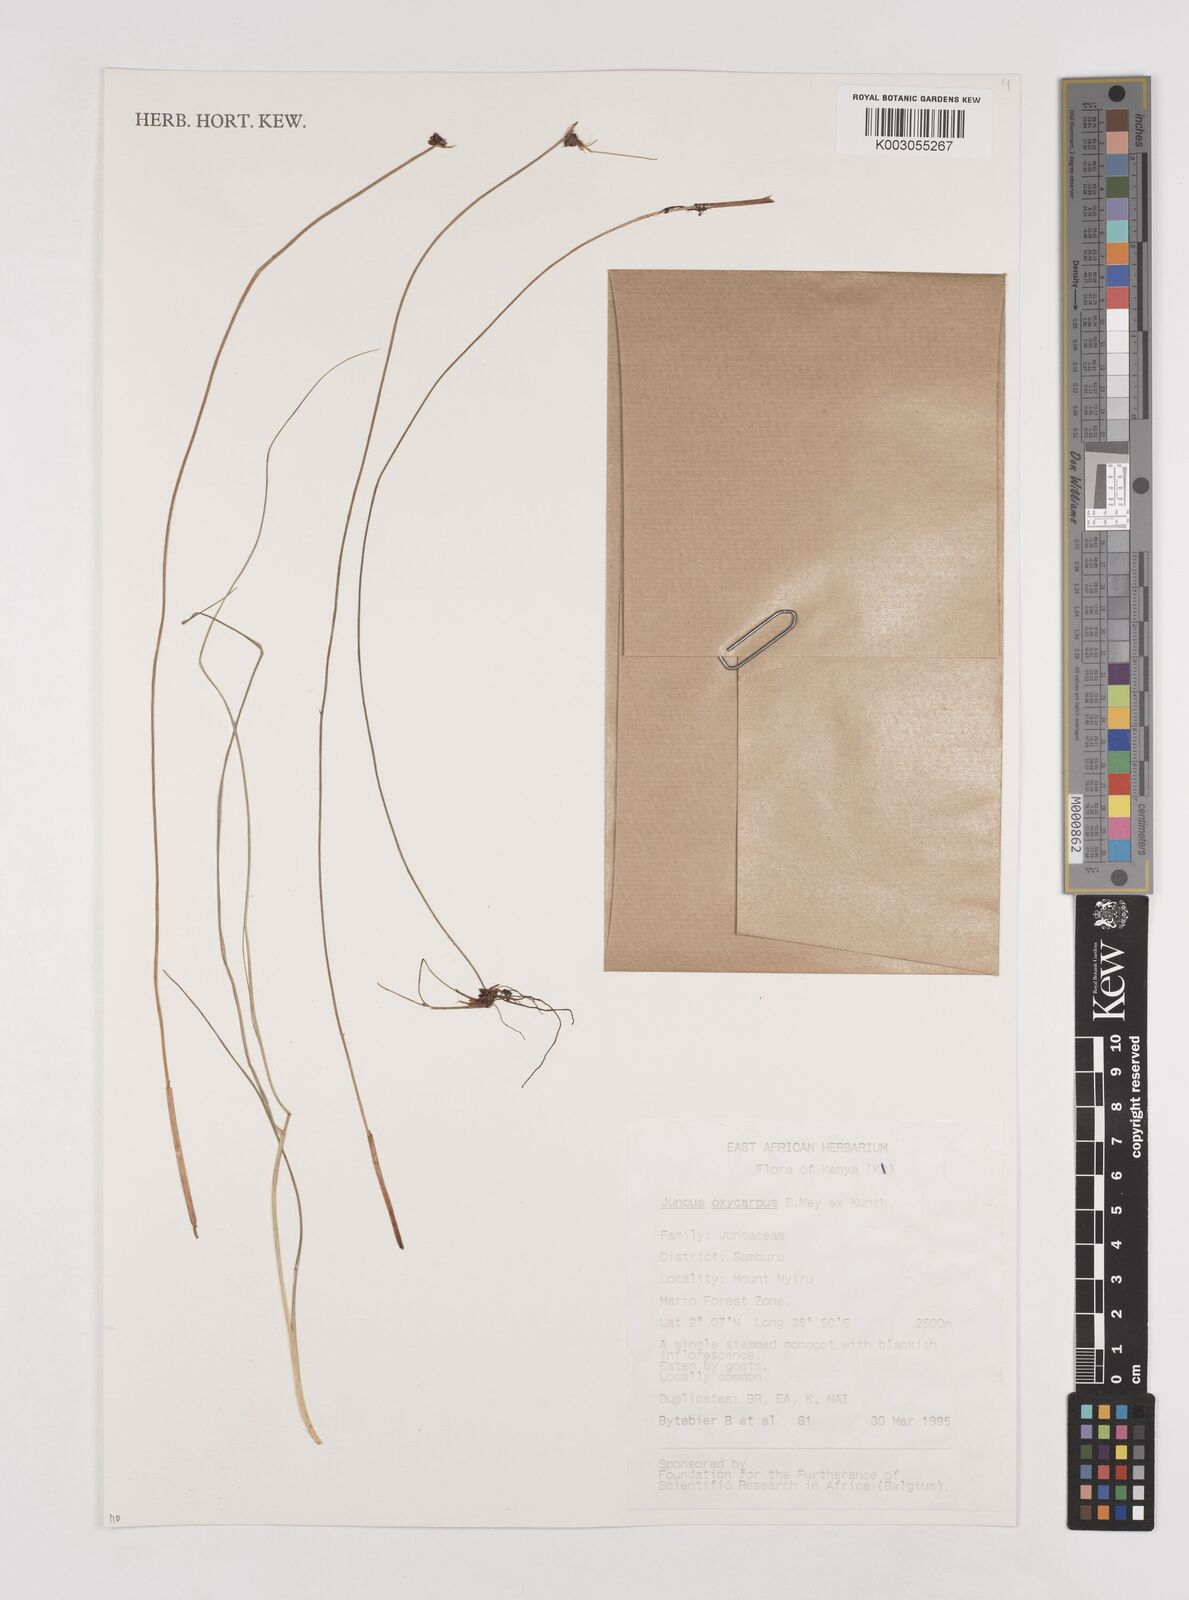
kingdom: Plantae
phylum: Tracheophyta
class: Liliopsida
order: Poales
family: Juncaceae
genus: Juncus
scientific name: Juncus oxycarpus
